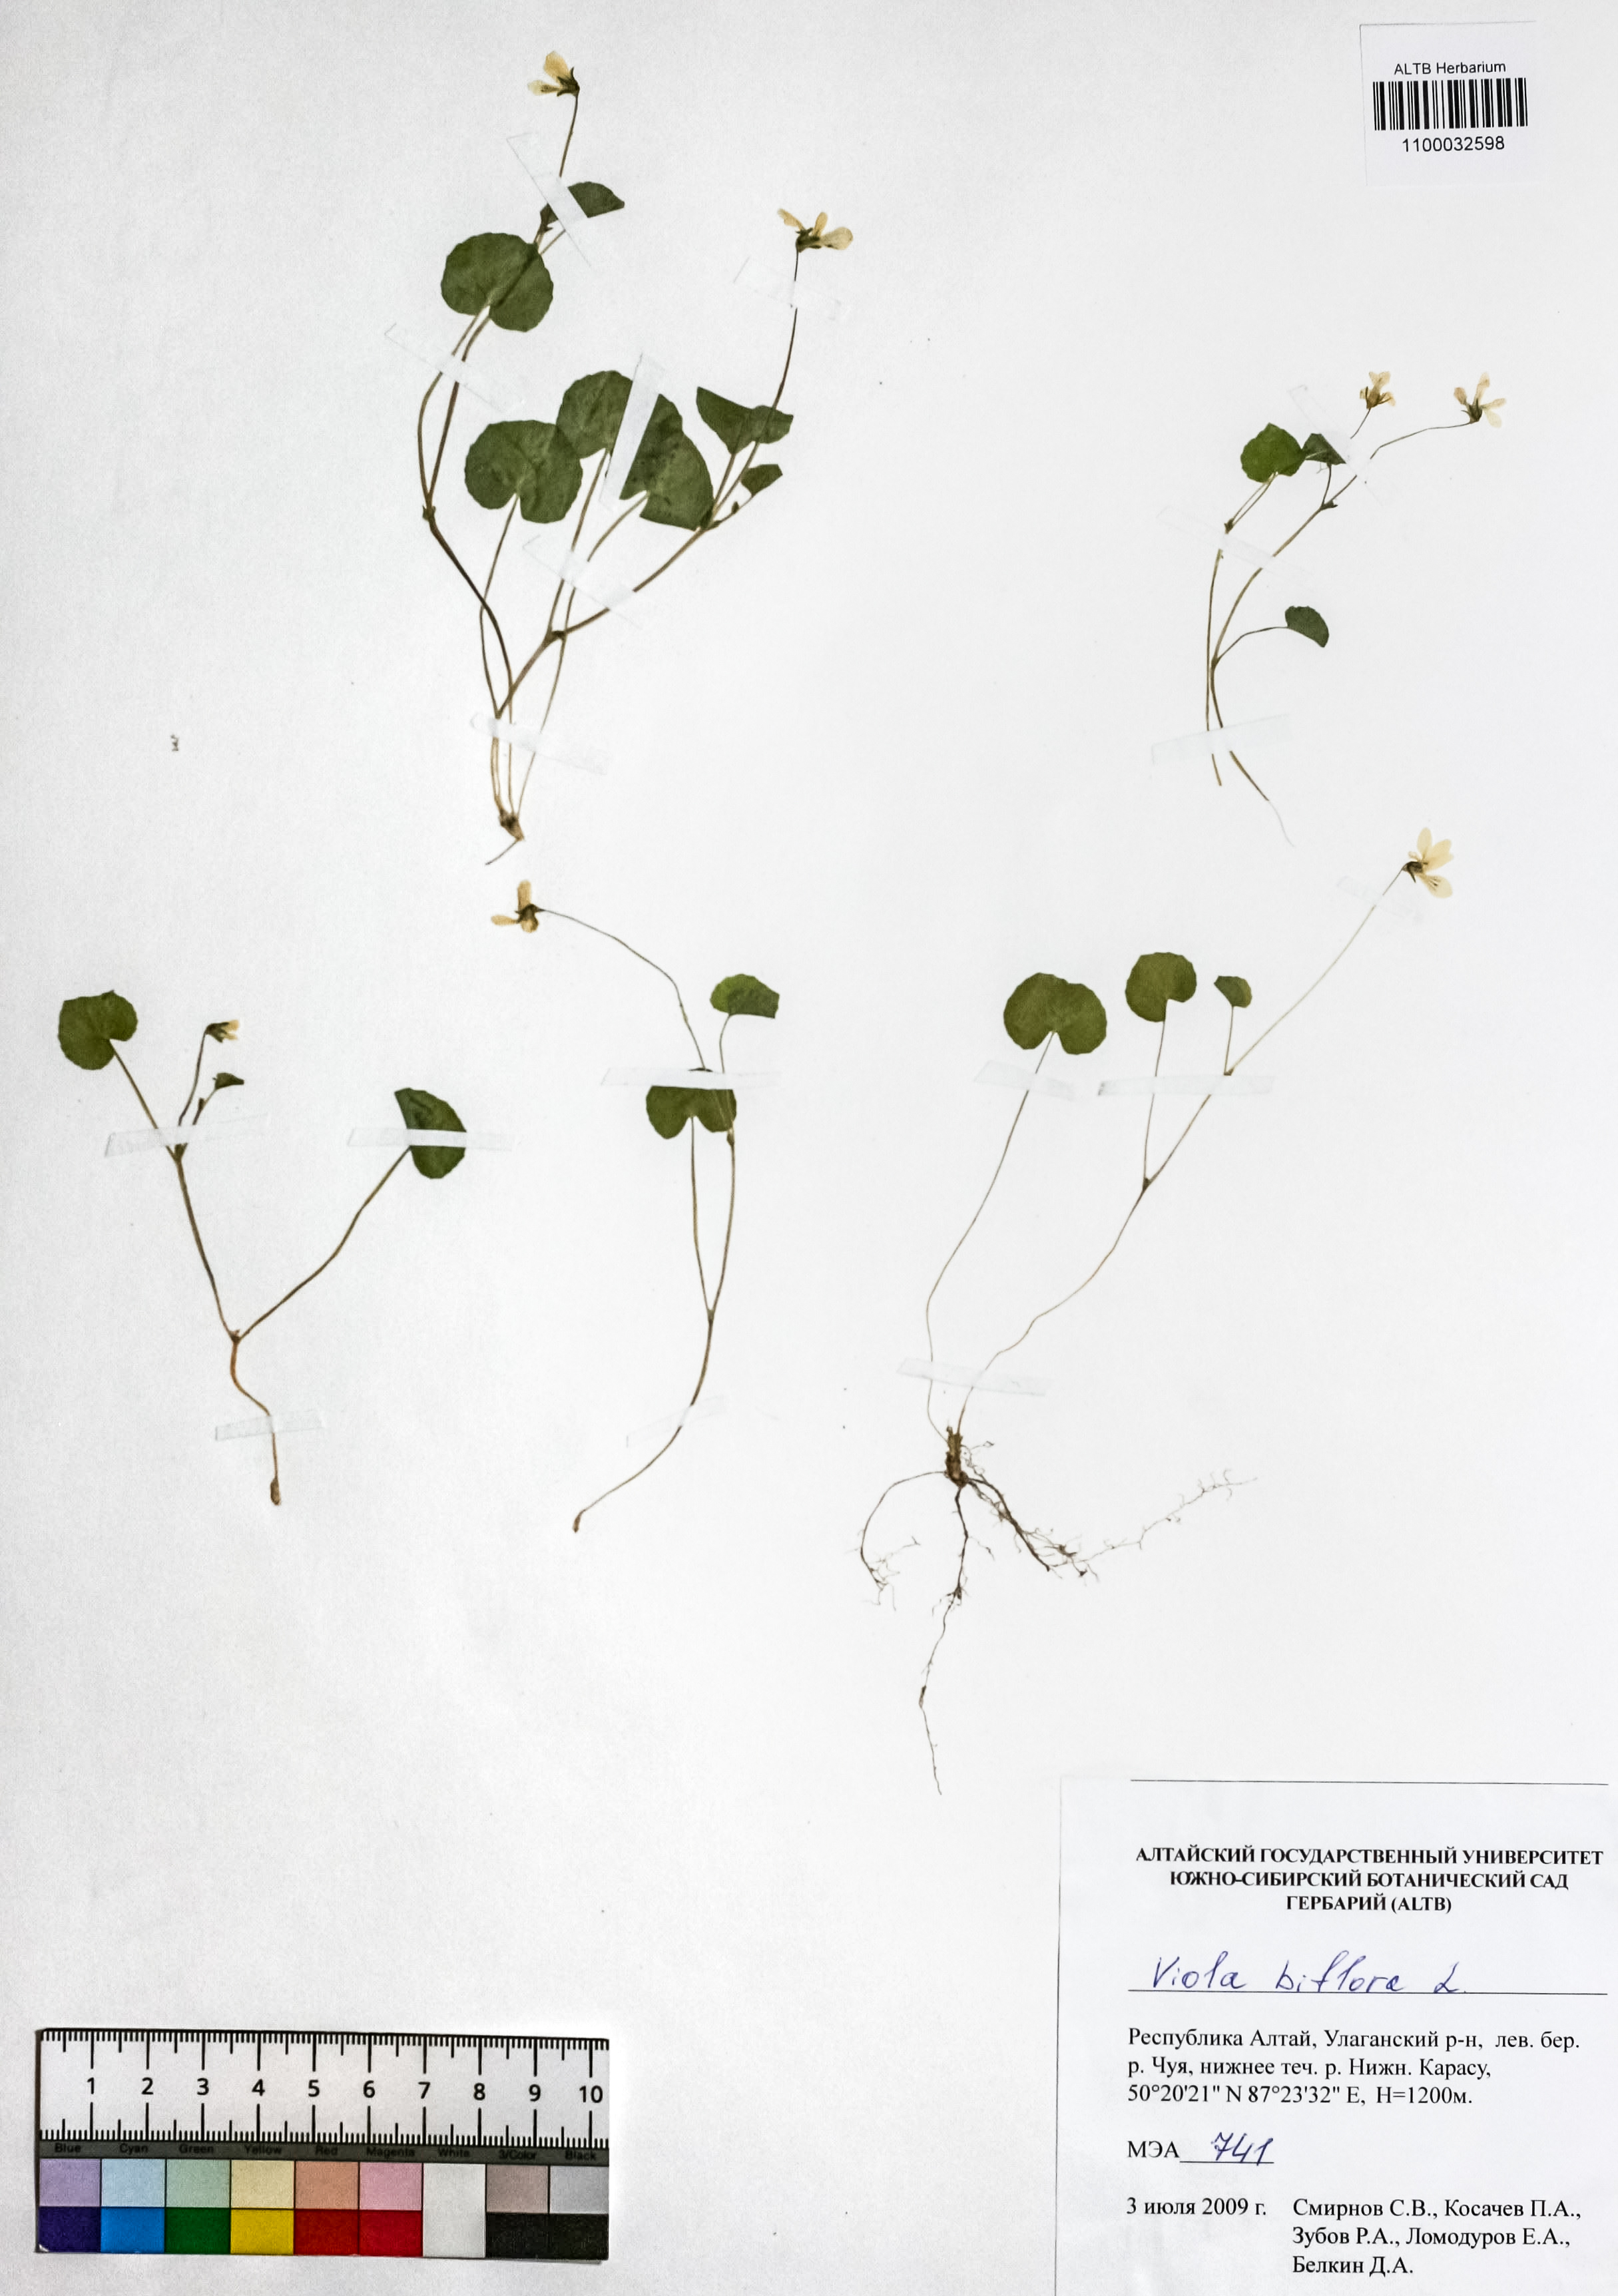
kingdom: Plantae
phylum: Tracheophyta
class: Magnoliopsida
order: Malpighiales
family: Violaceae
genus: Viola
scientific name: Viola biflora
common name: Alpine yellow violet
